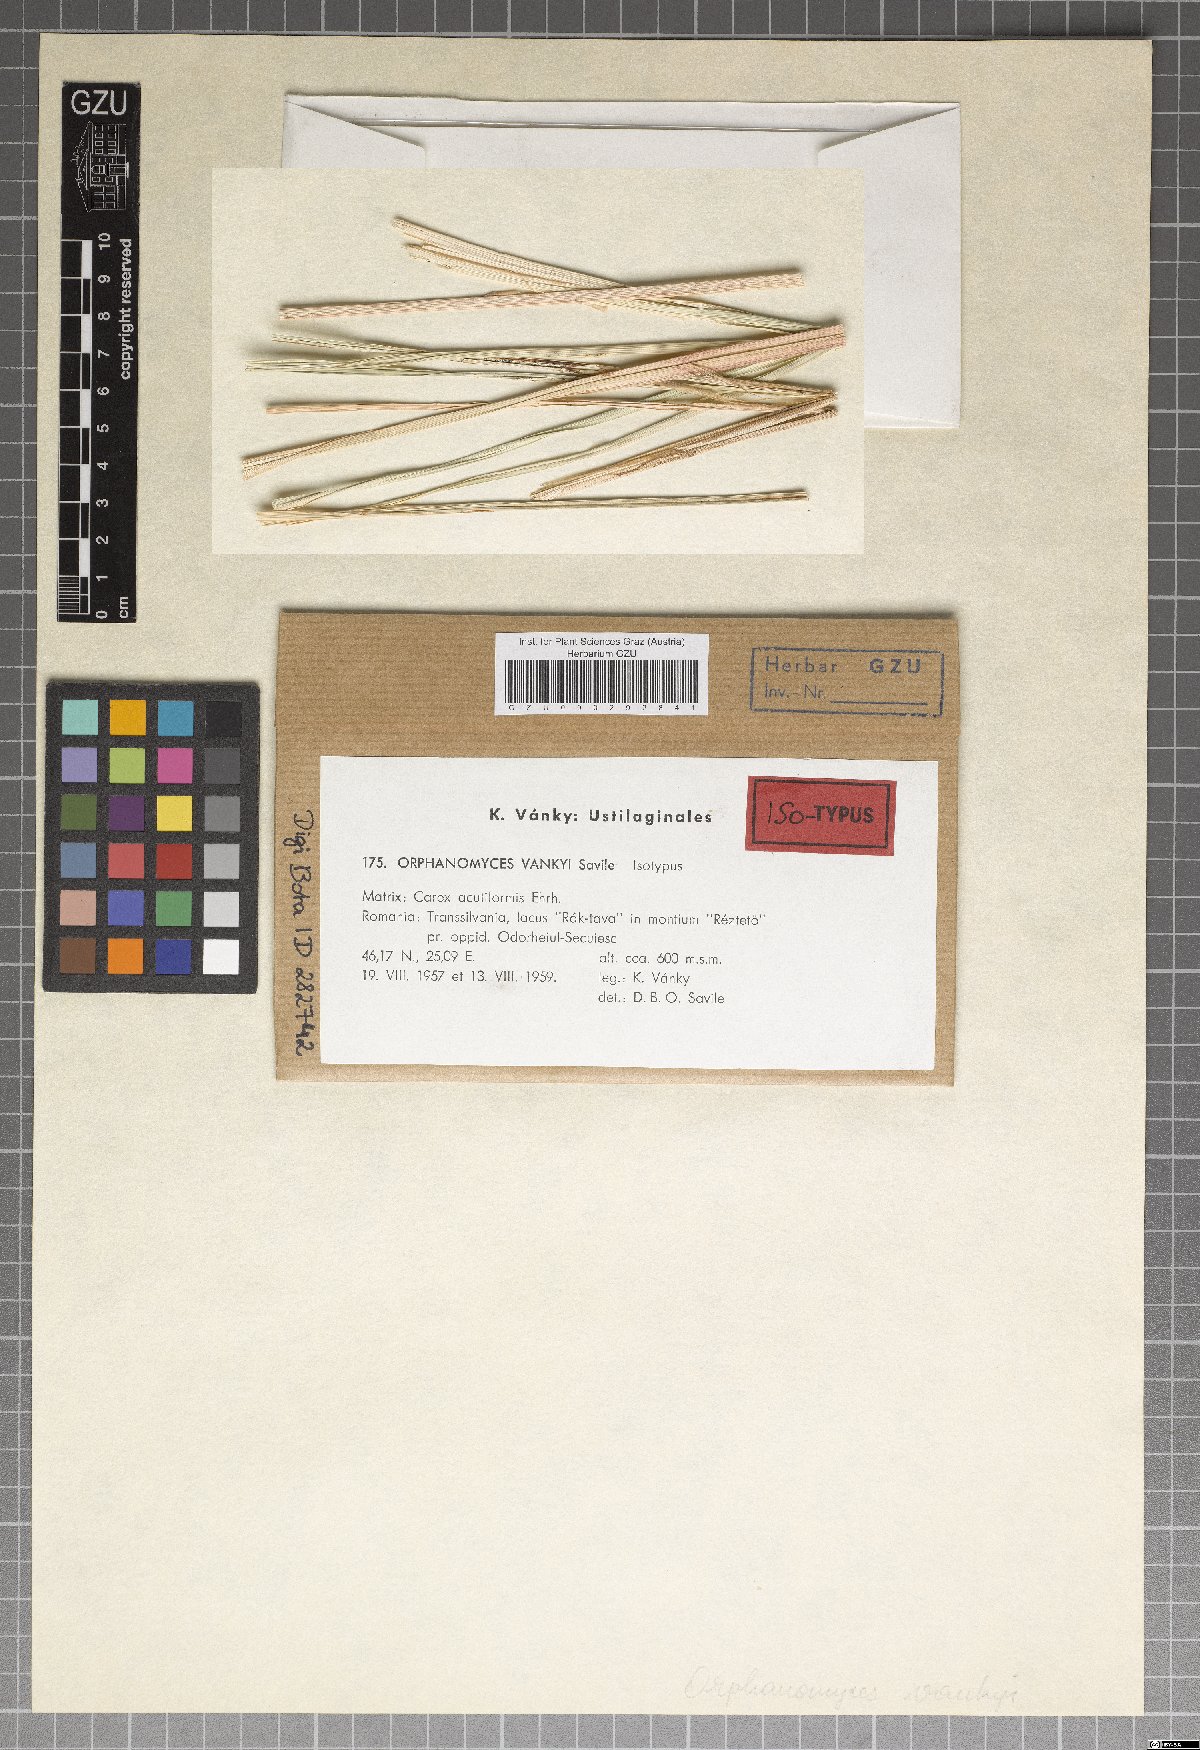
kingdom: Fungi
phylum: Basidiomycota
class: Ustilaginomycetes
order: Ustilaginales
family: Anthracoideaceae
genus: Orphanomyces
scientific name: Orphanomyces vankyi
